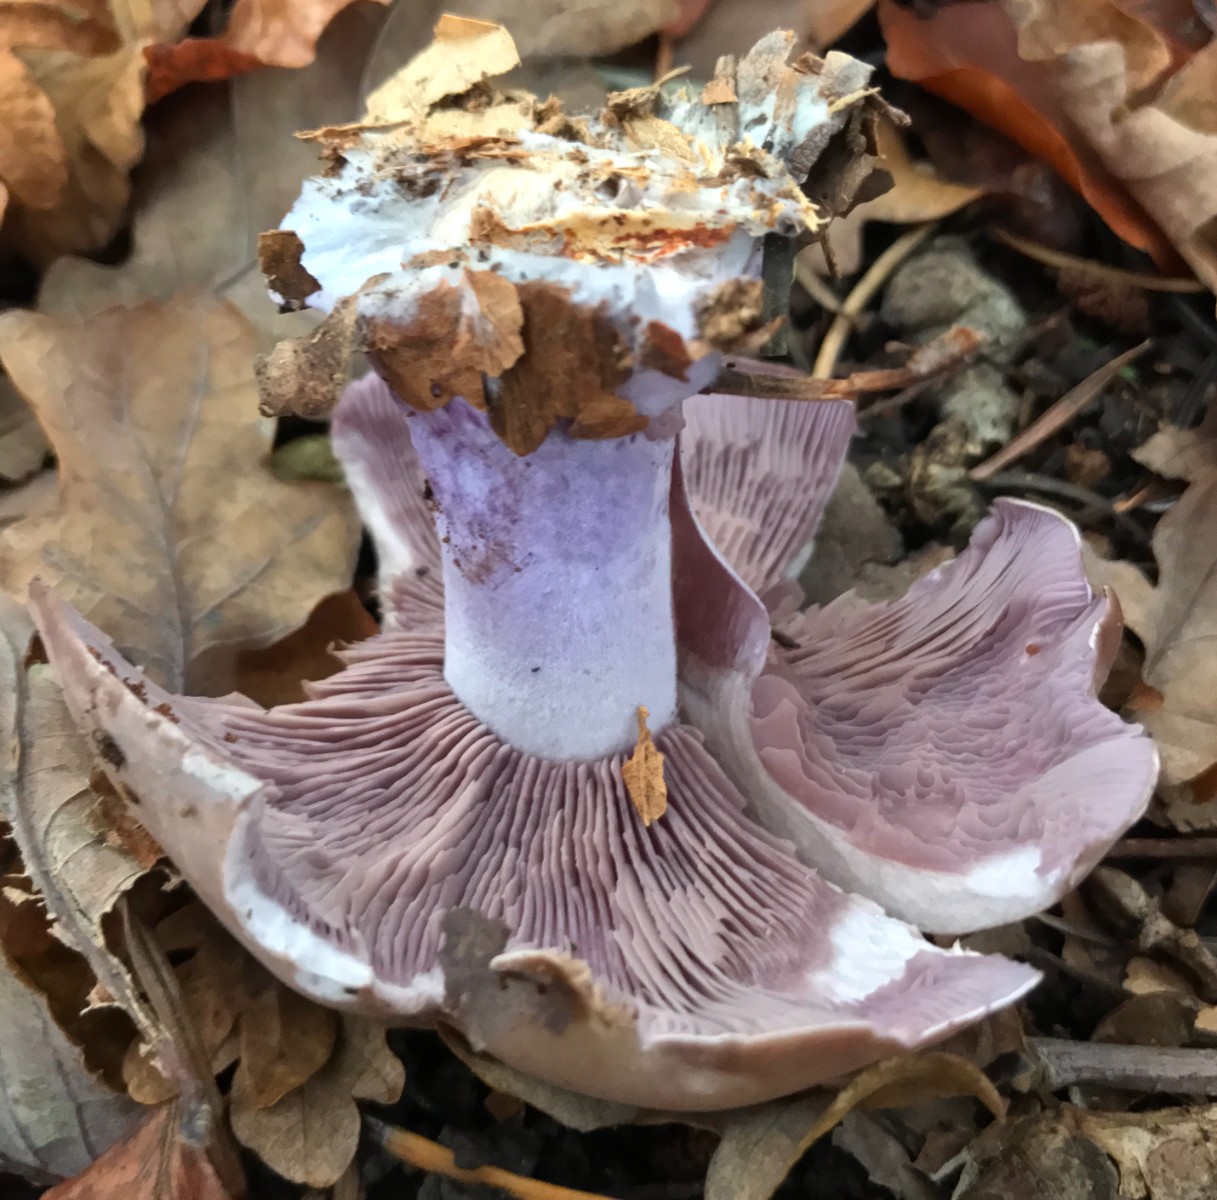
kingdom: Fungi
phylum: Basidiomycota
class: Agaricomycetes
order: Agaricales
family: Tricholomataceae
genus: Lepista
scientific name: Lepista nuda
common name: violet hekseringshat
